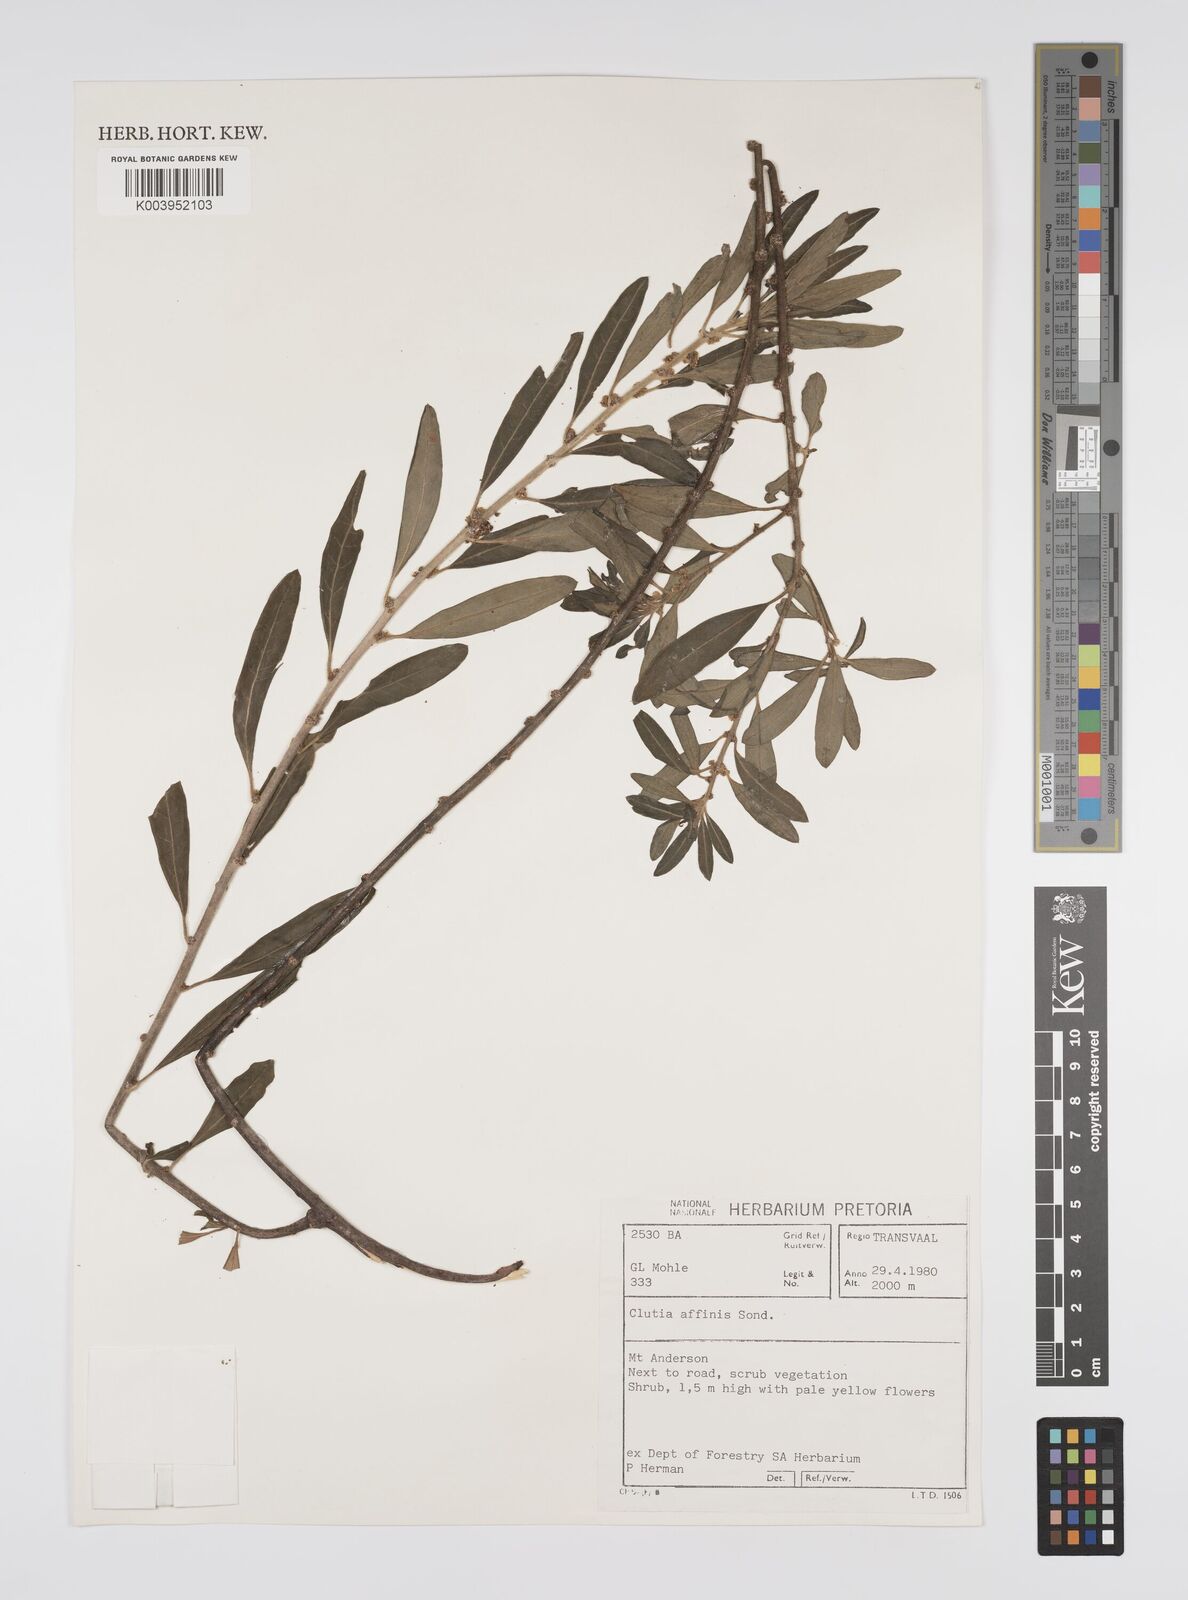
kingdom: Plantae
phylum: Tracheophyta
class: Magnoliopsida
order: Malpighiales
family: Peraceae
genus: Clutia
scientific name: Clutia affinis
